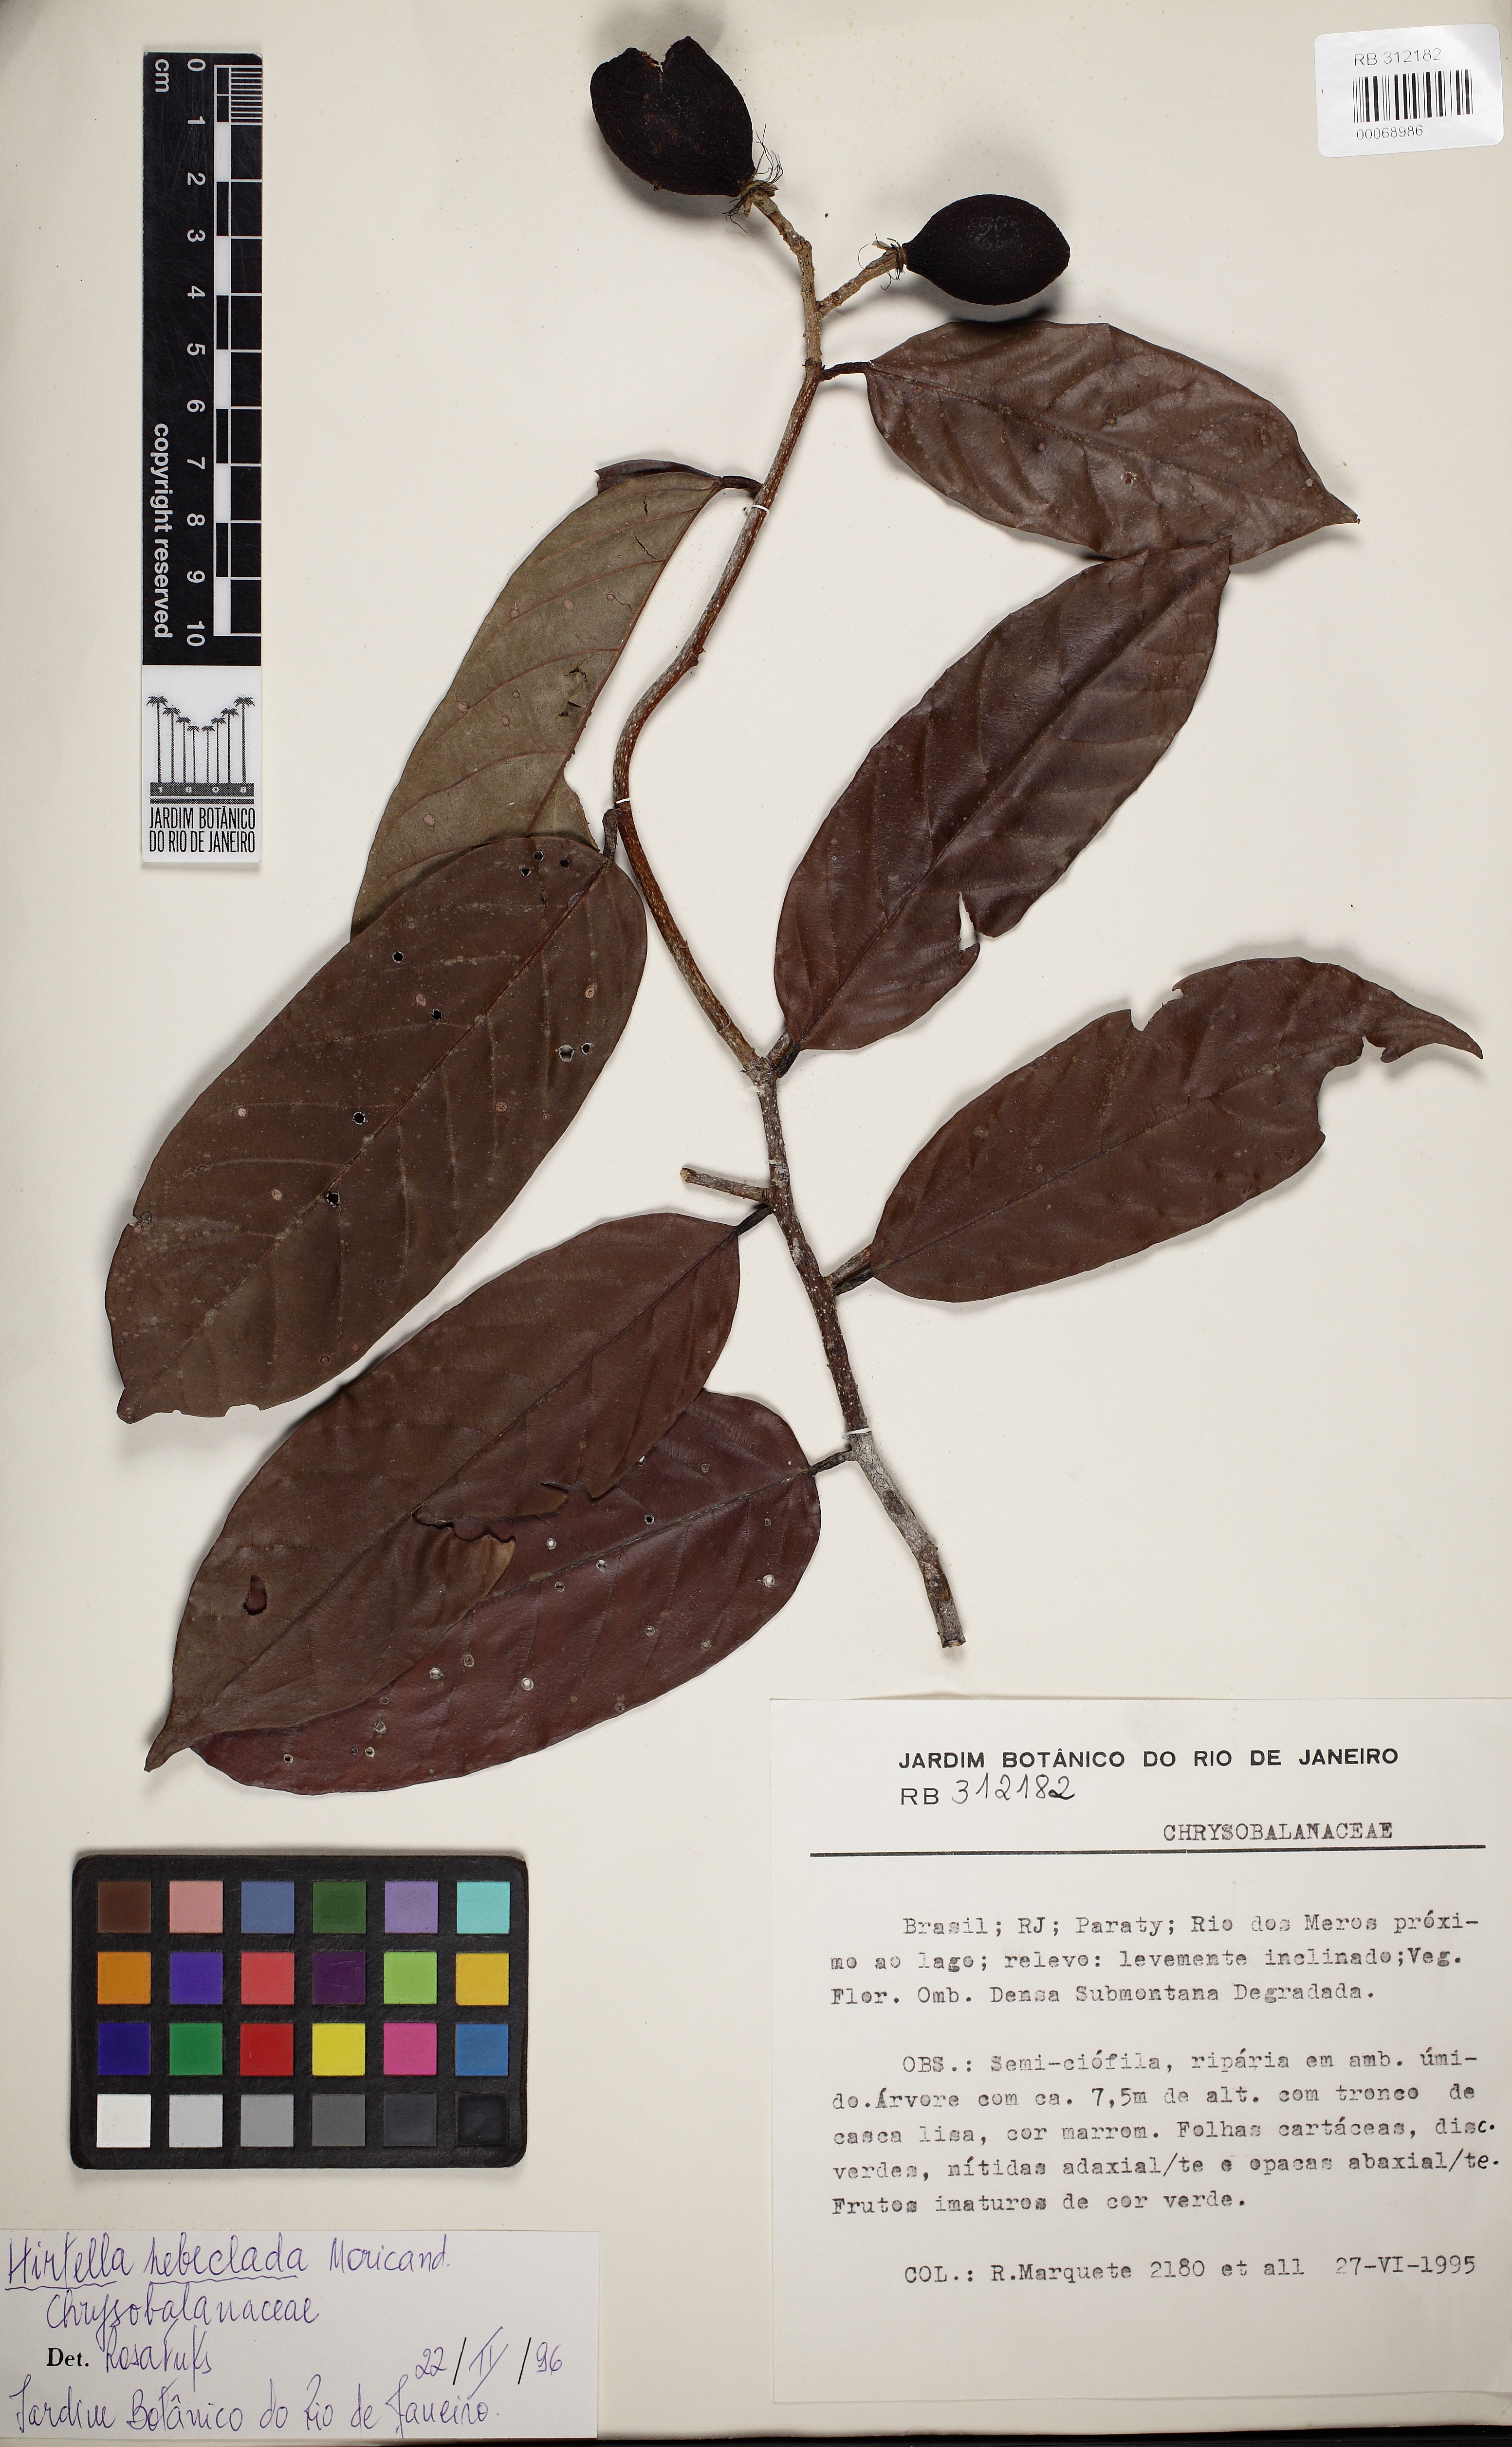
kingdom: Plantae
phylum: Tracheophyta
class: Magnoliopsida
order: Malpighiales
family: Chrysobalanaceae
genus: Couepia
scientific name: Couepia
